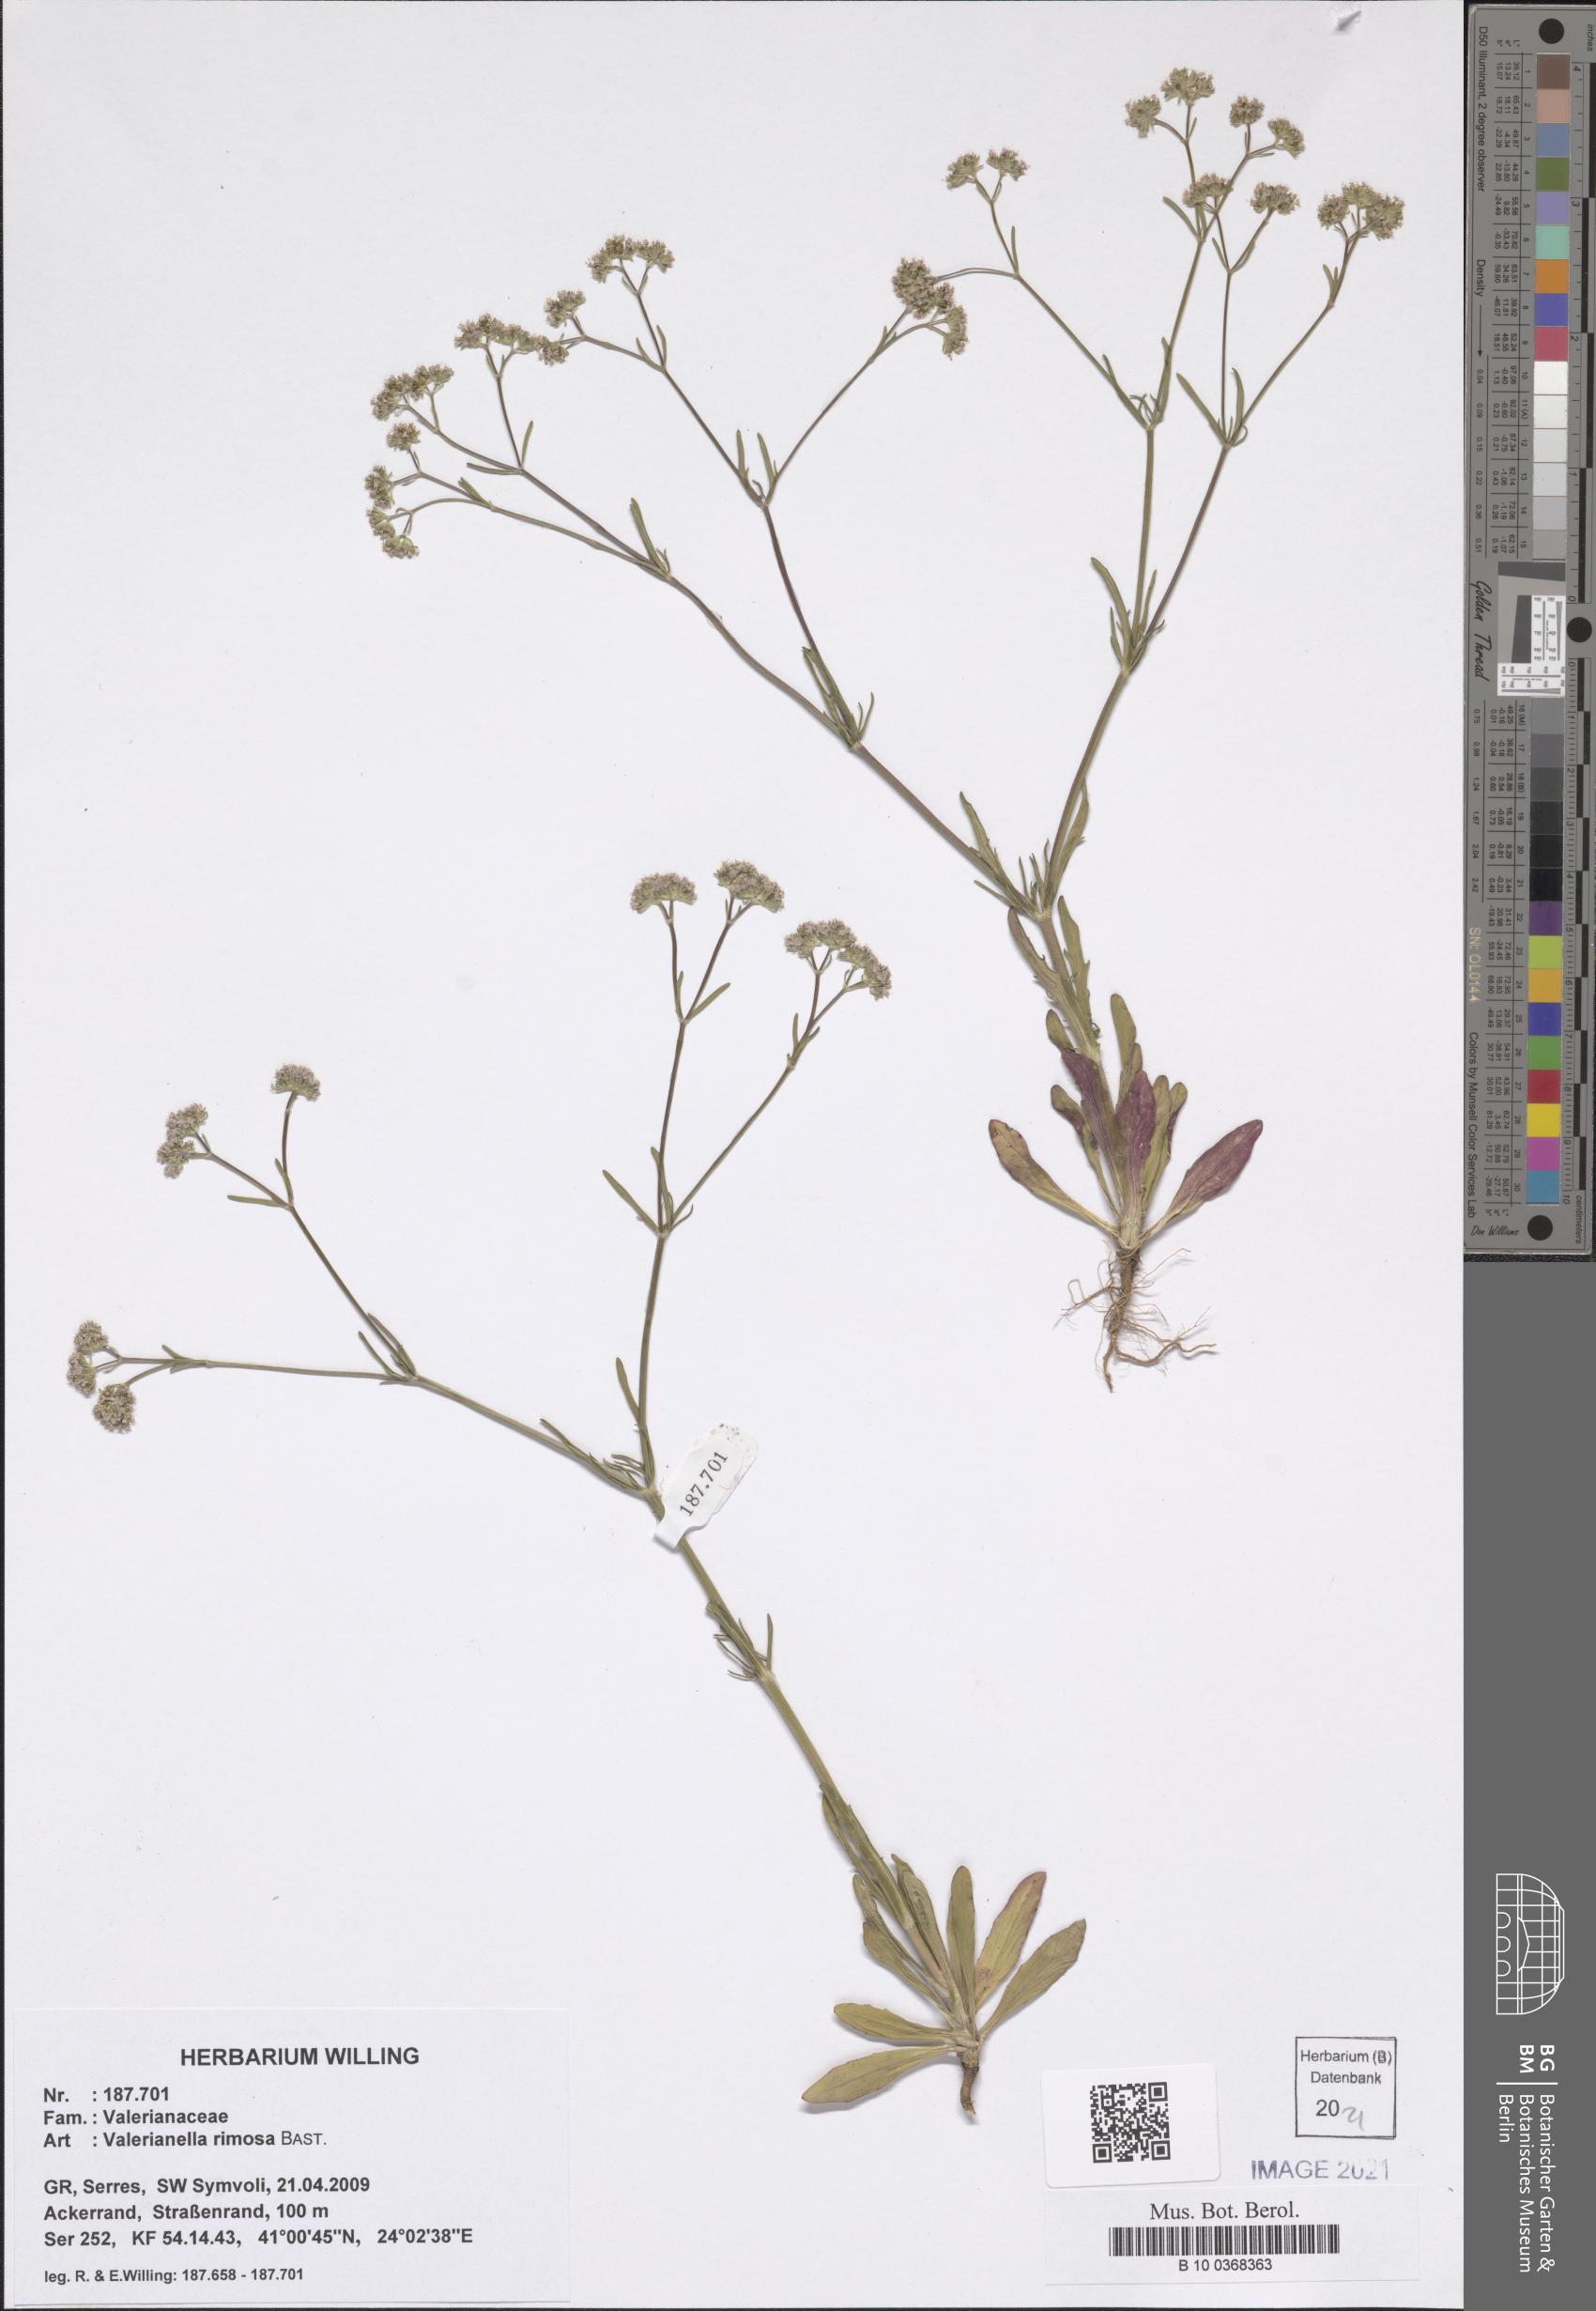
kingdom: Plantae
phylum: Tracheophyta
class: Magnoliopsida
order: Dipsacales
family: Caprifoliaceae
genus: Valerianella
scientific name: Valerianella rimosa
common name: Broad-fruited cornsalad
